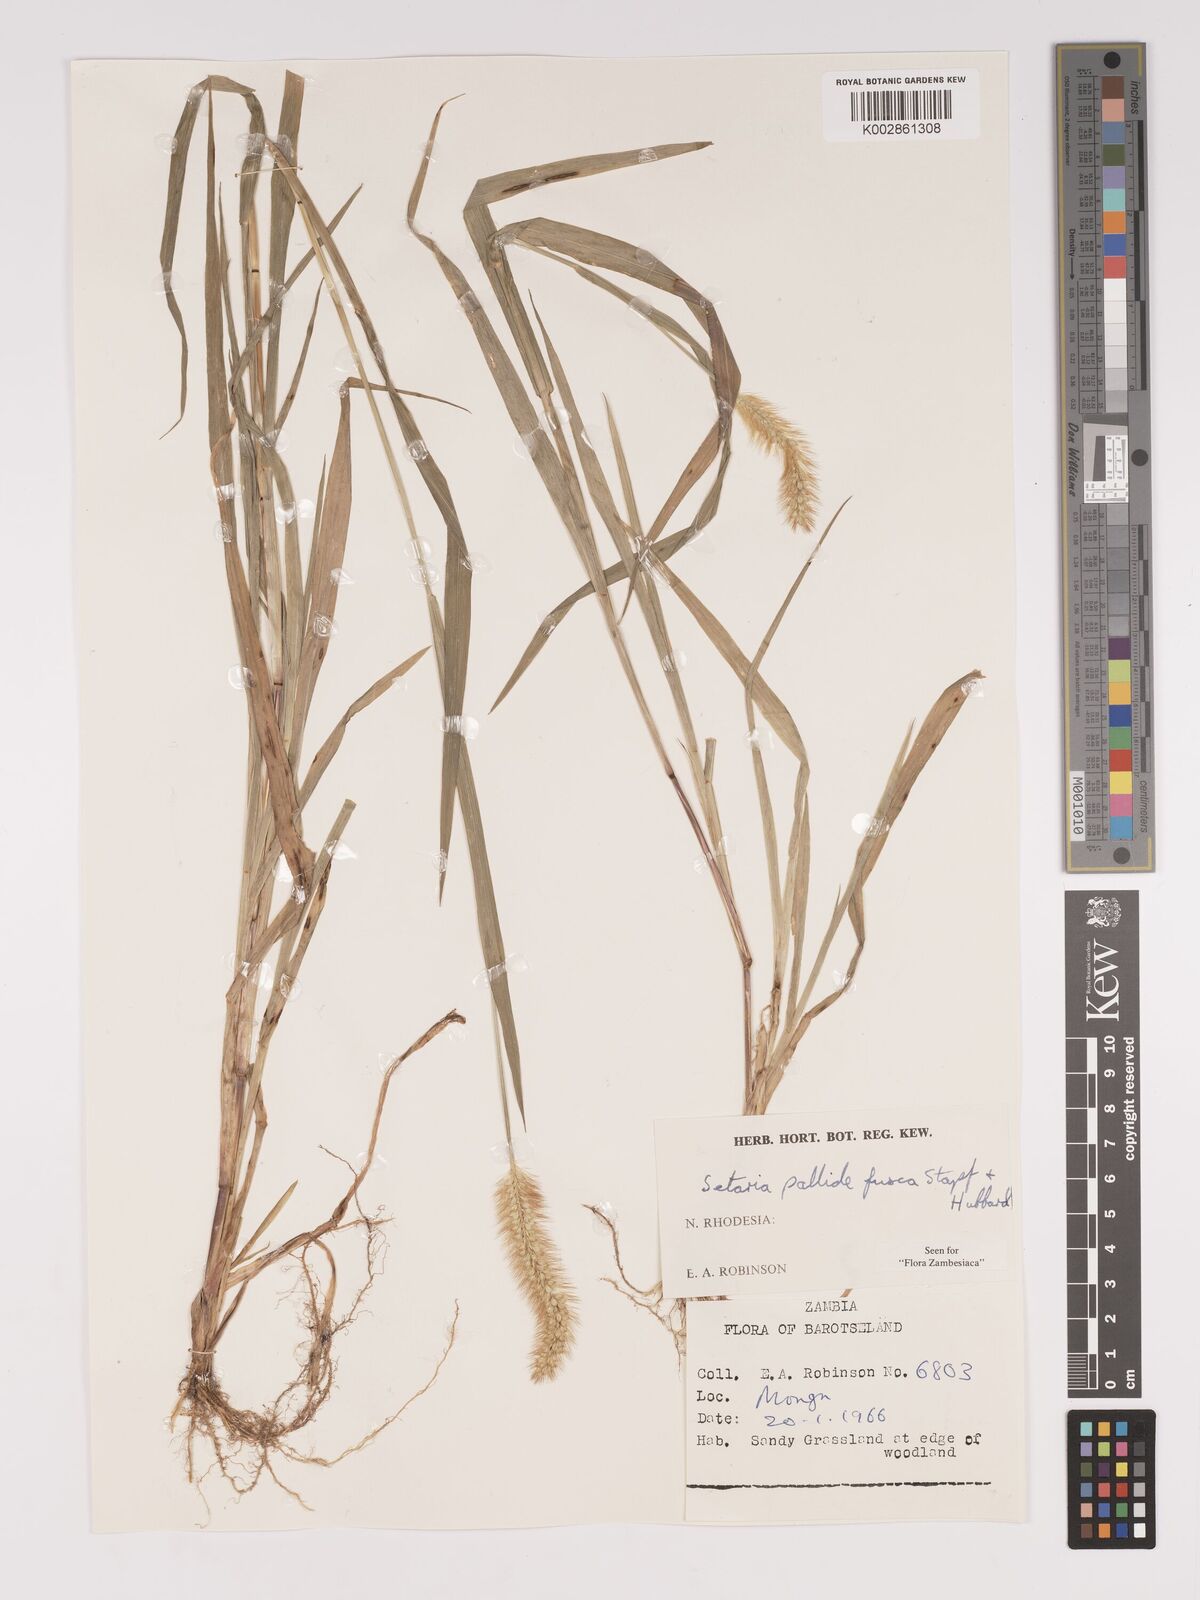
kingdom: Plantae
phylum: Tracheophyta
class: Liliopsida
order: Poales
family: Poaceae
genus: Setaria
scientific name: Setaria pumila
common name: Yellow bristle-grass
